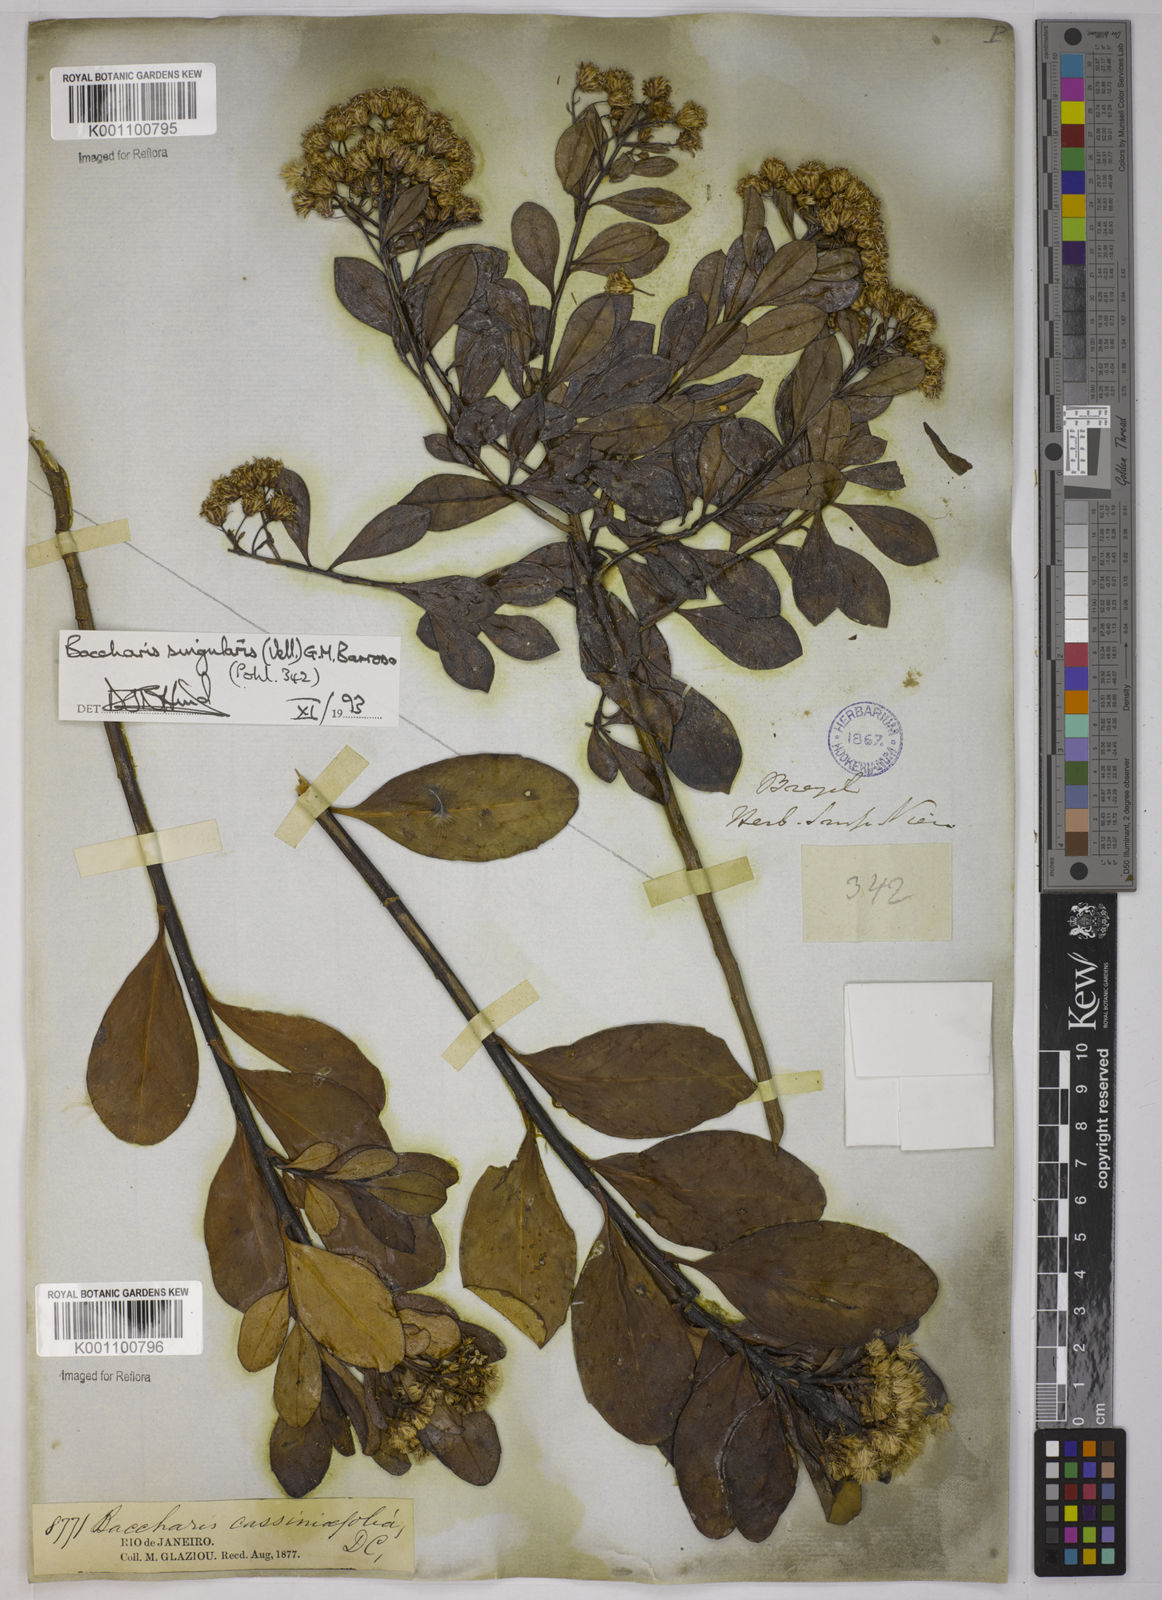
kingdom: Plantae
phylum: Tracheophyta
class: Magnoliopsida
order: Asterales
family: Asteraceae
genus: Baccharis
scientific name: Baccharis
